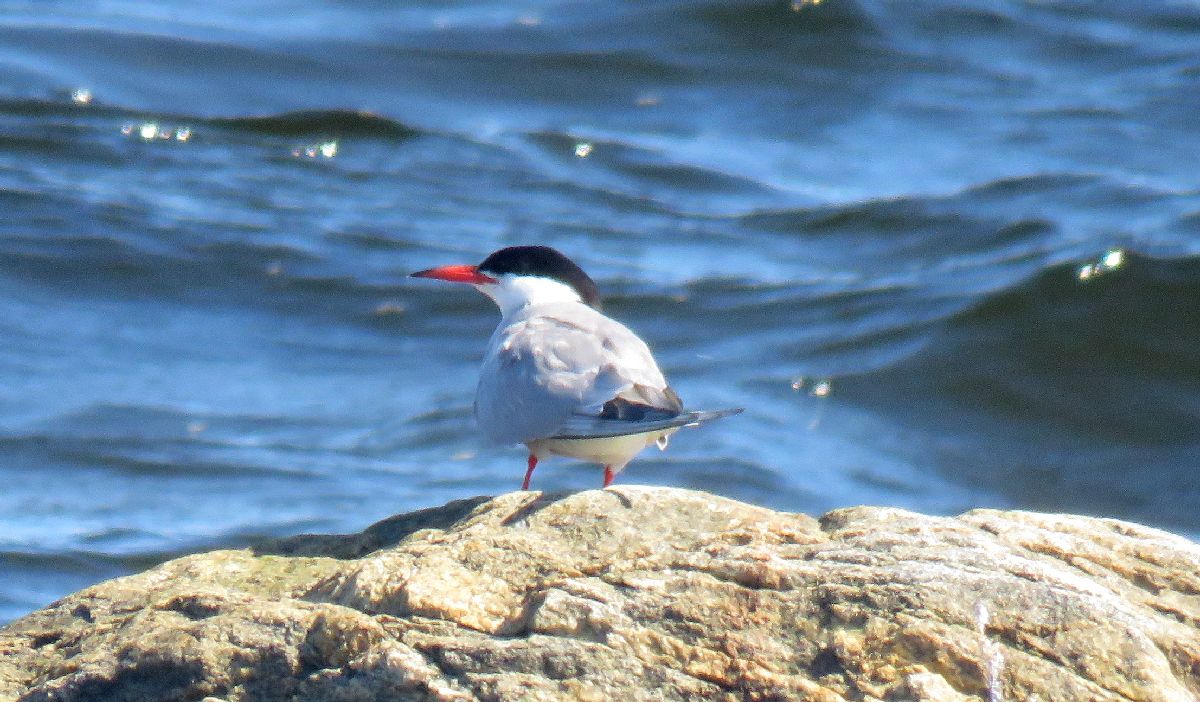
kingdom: Animalia
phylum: Chordata
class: Aves
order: Charadriiformes
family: Laridae
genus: Sterna
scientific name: Sterna hirundo
